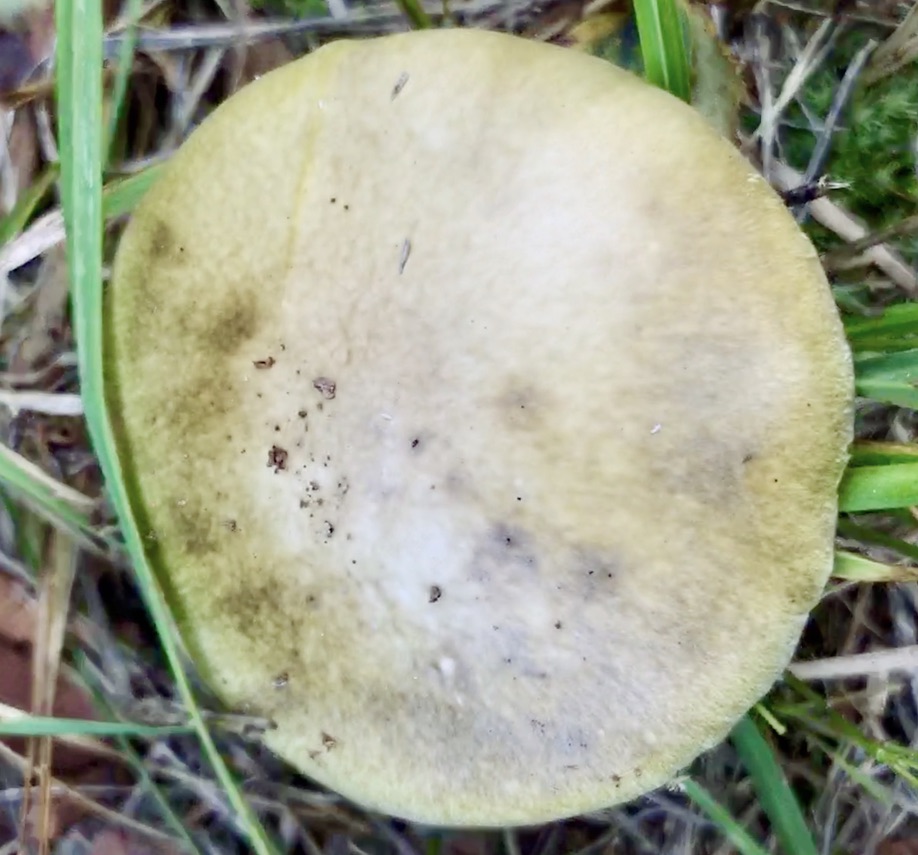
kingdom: Fungi
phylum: Basidiomycota
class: Agaricomycetes
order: Agaricales
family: Amanitaceae
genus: Amanita
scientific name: Amanita phalloides
